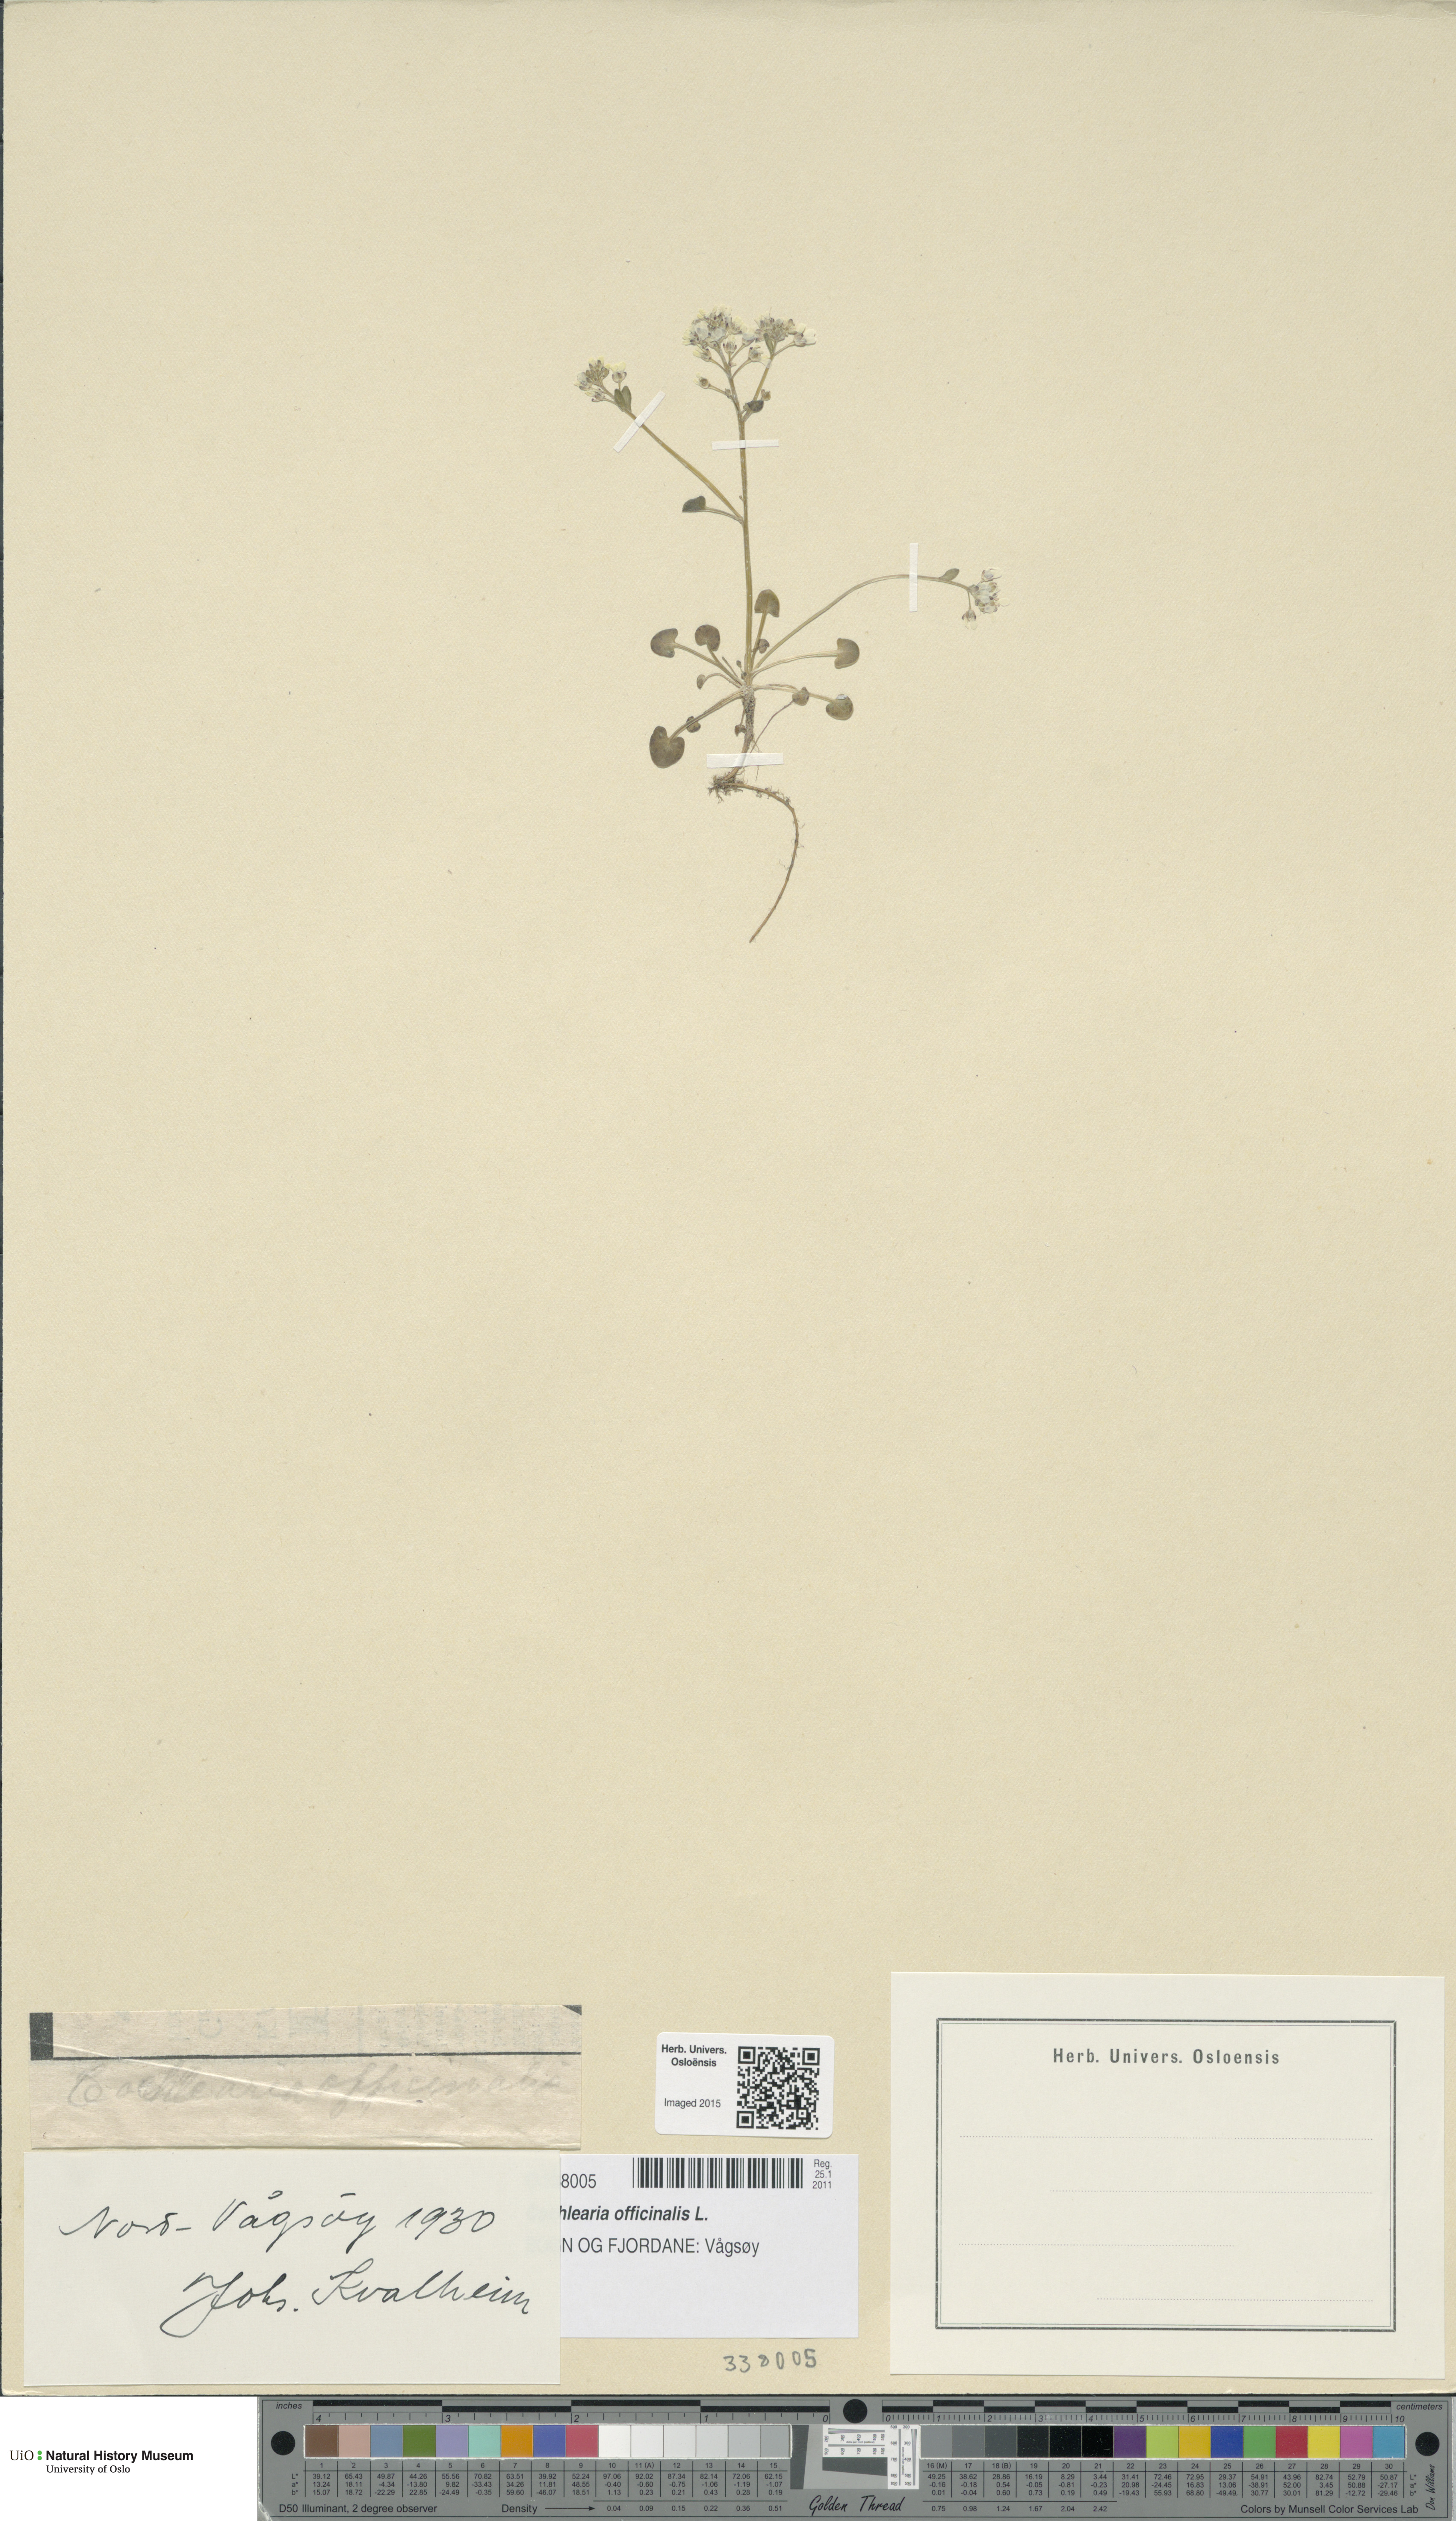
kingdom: Plantae
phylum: Tracheophyta
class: Magnoliopsida
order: Brassicales
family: Brassicaceae
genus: Cochlearia
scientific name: Cochlearia officinalis
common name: Scurvy-grass
